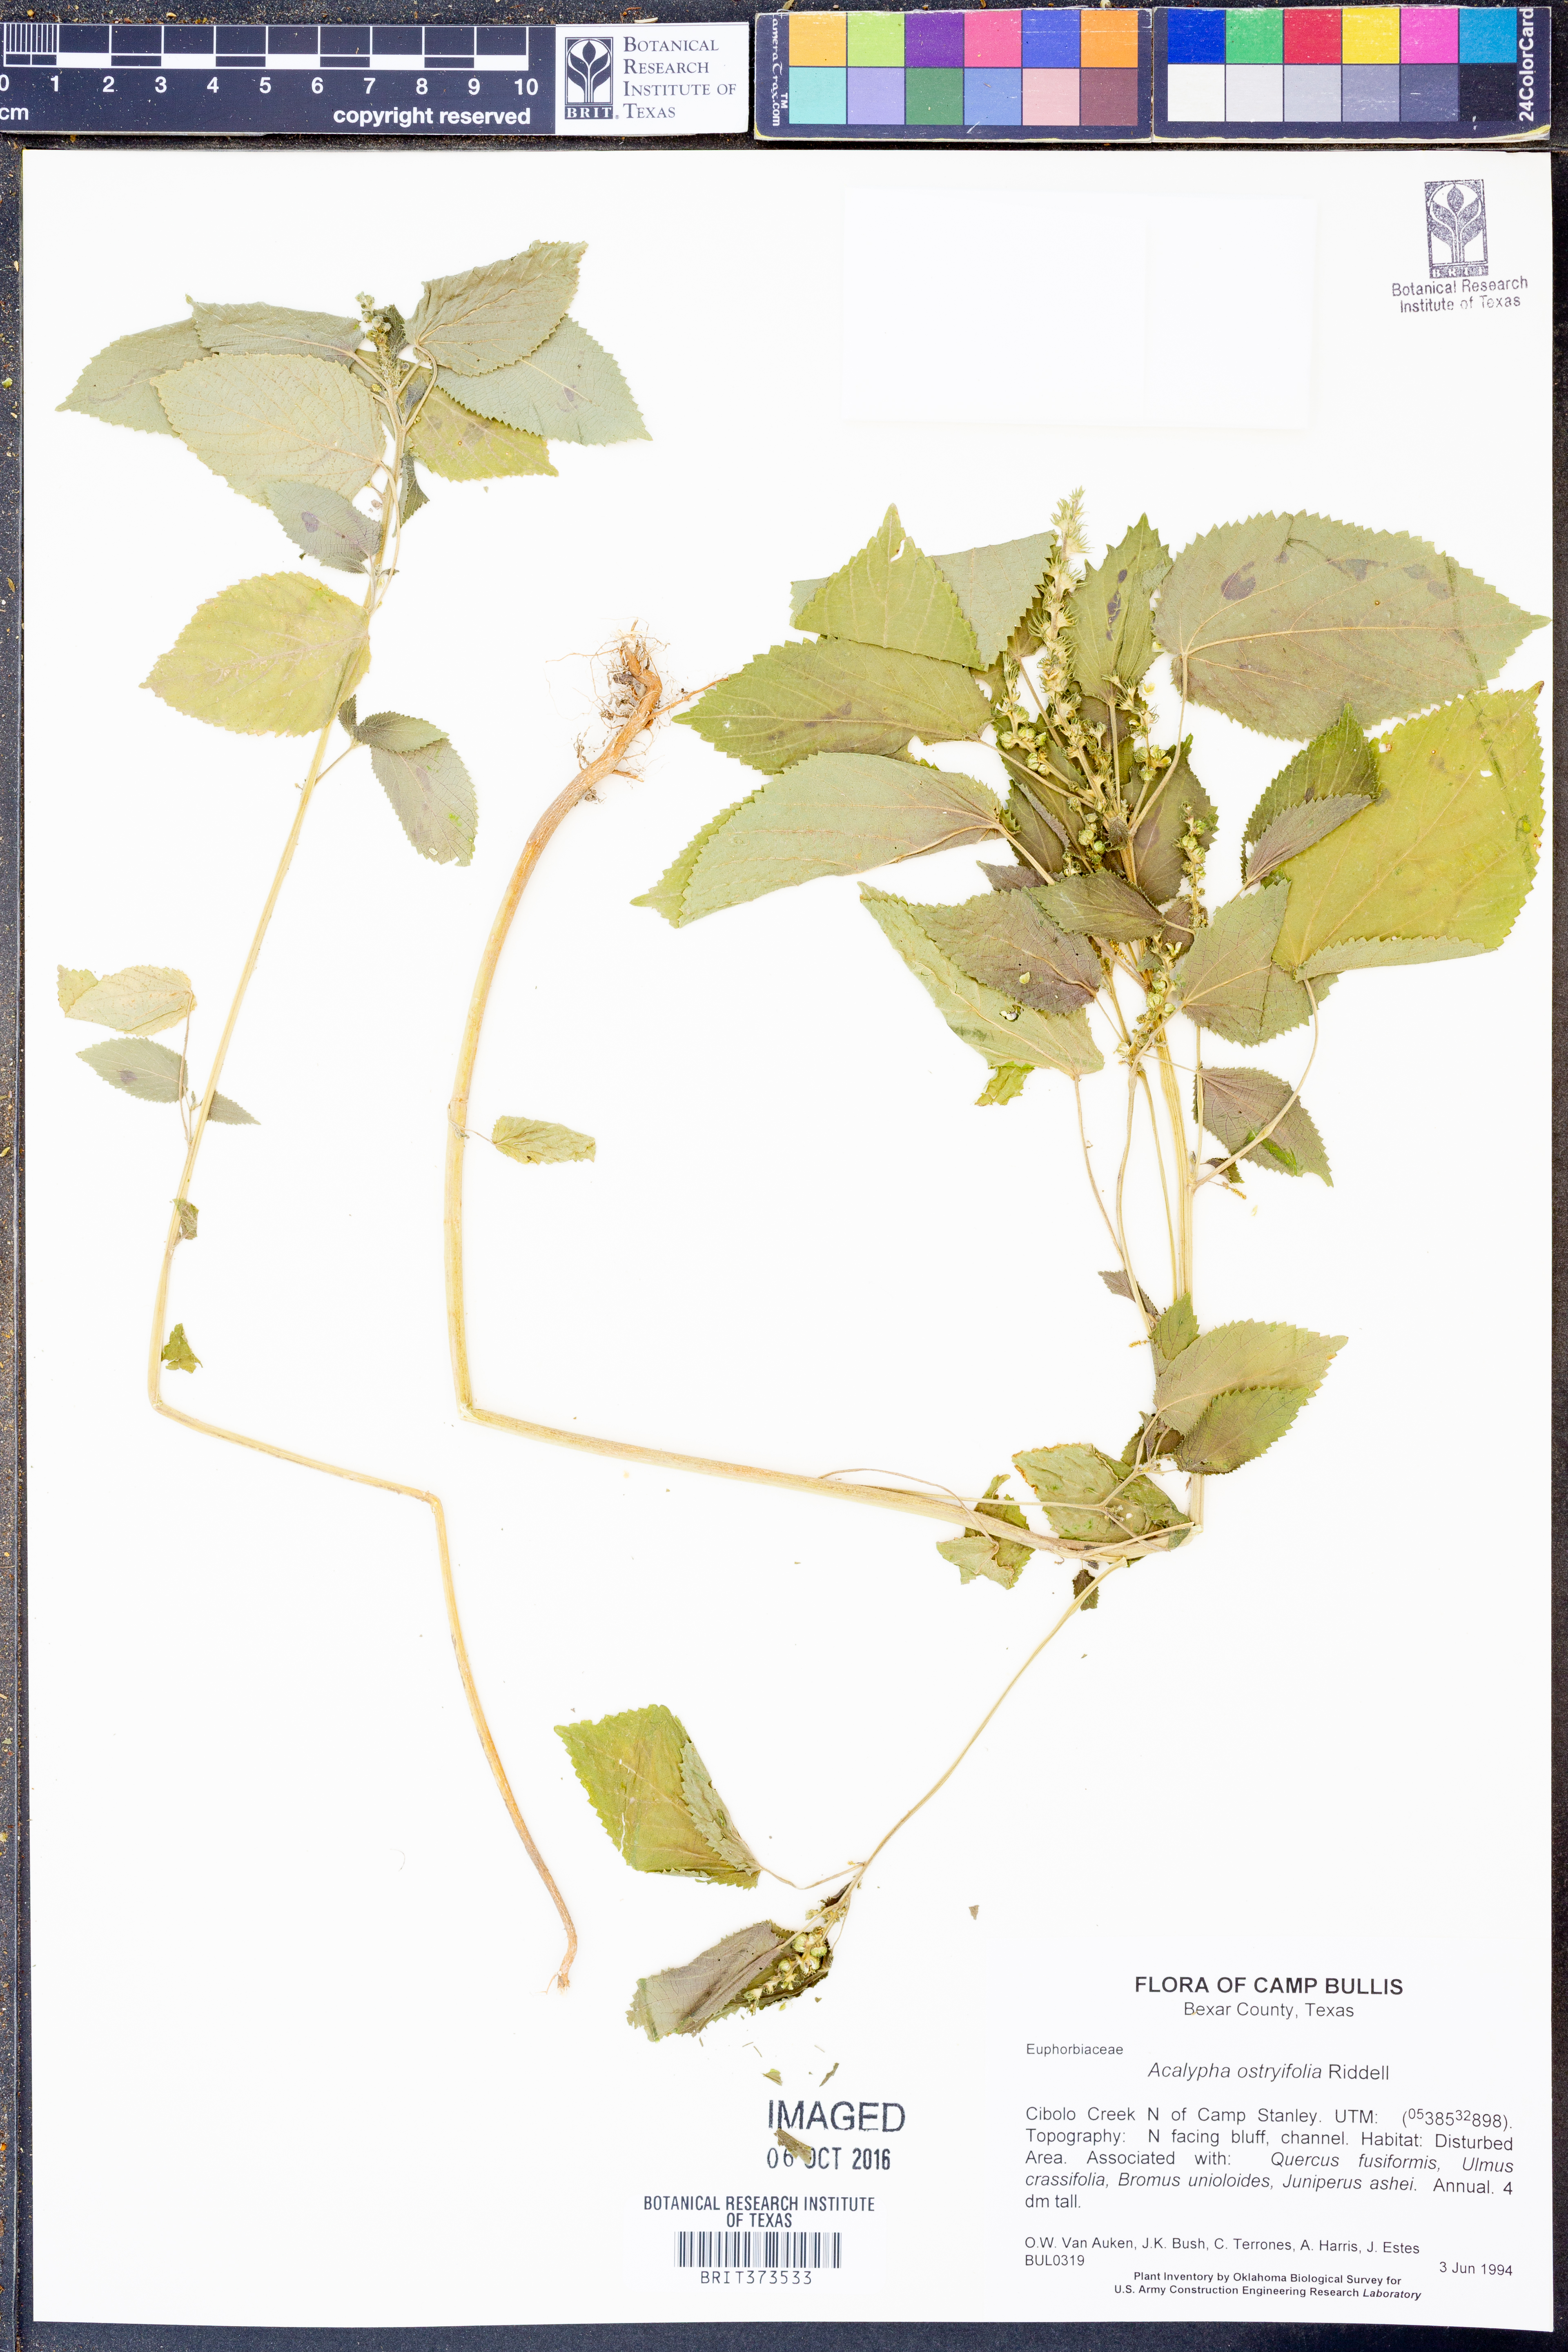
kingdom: Plantae
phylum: Tracheophyta
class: Magnoliopsida
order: Malpighiales
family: Euphorbiaceae
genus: Acalypha
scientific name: Acalypha persimilis
